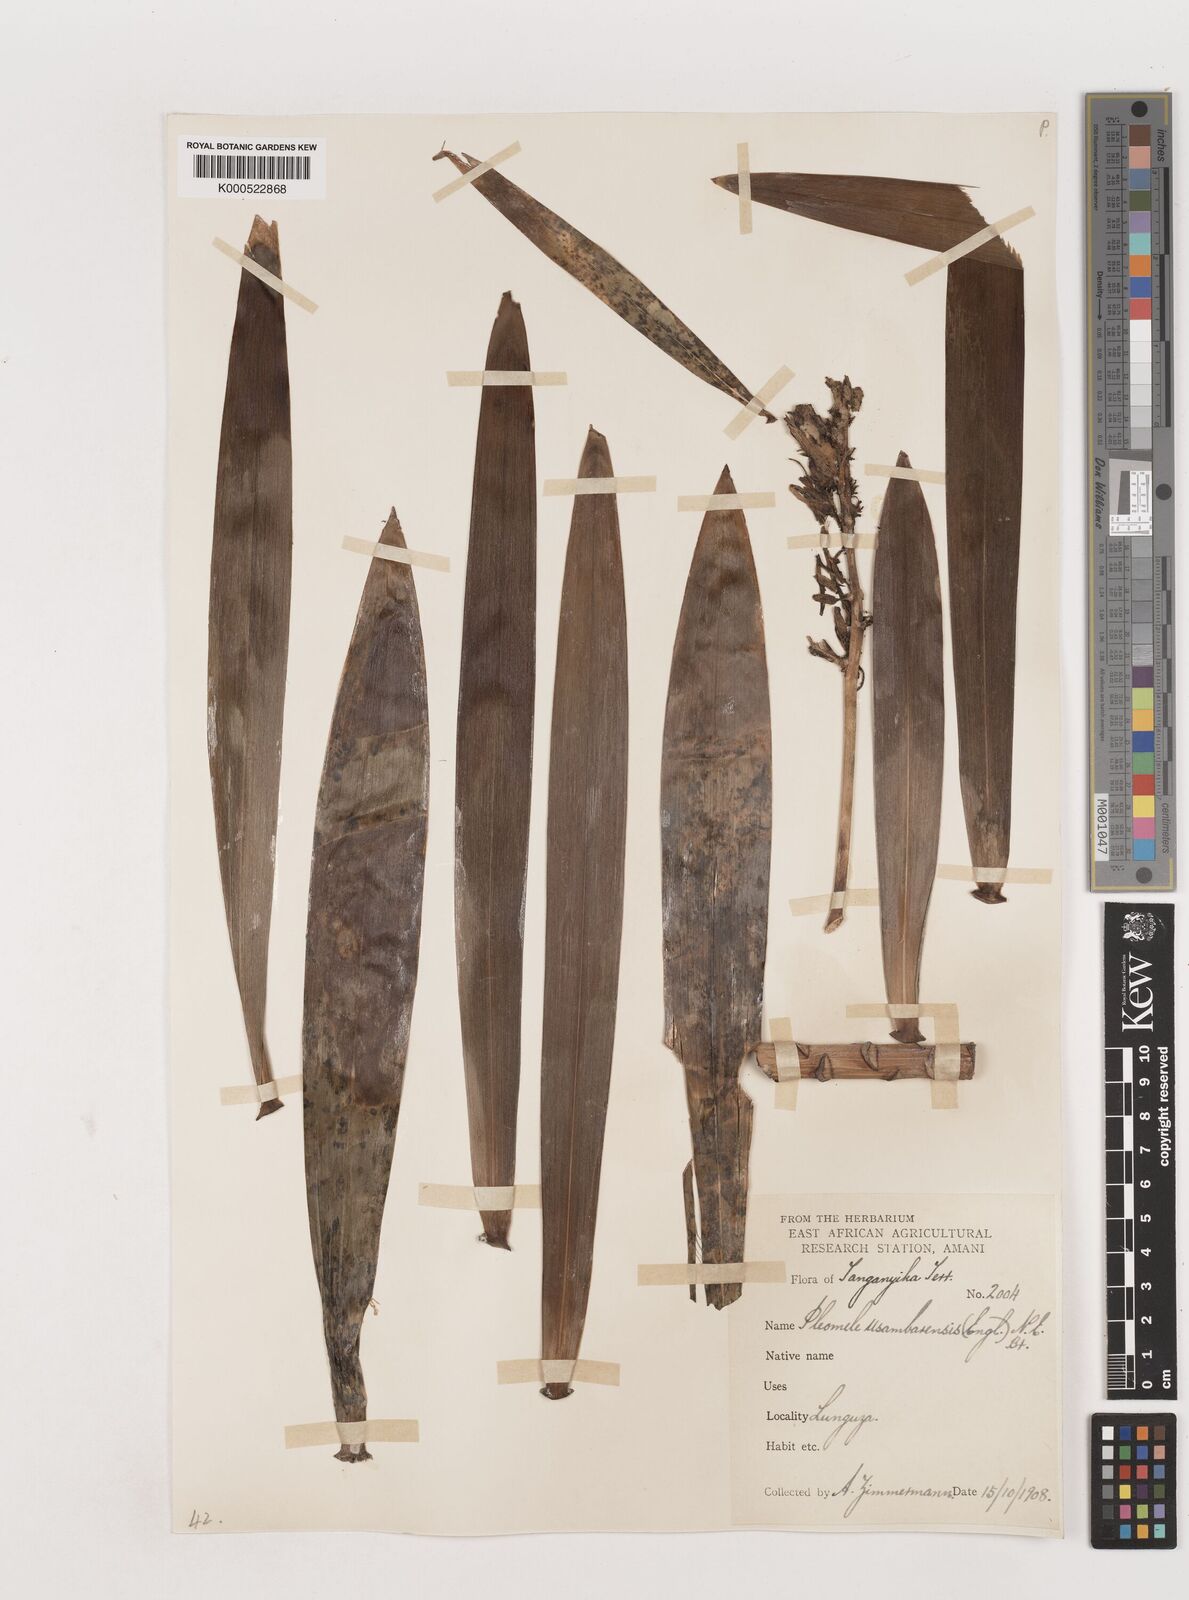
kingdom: Plantae
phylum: Tracheophyta
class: Liliopsida
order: Asparagales
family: Asparagaceae
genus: Dracaena
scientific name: Dracaena usambarensis
